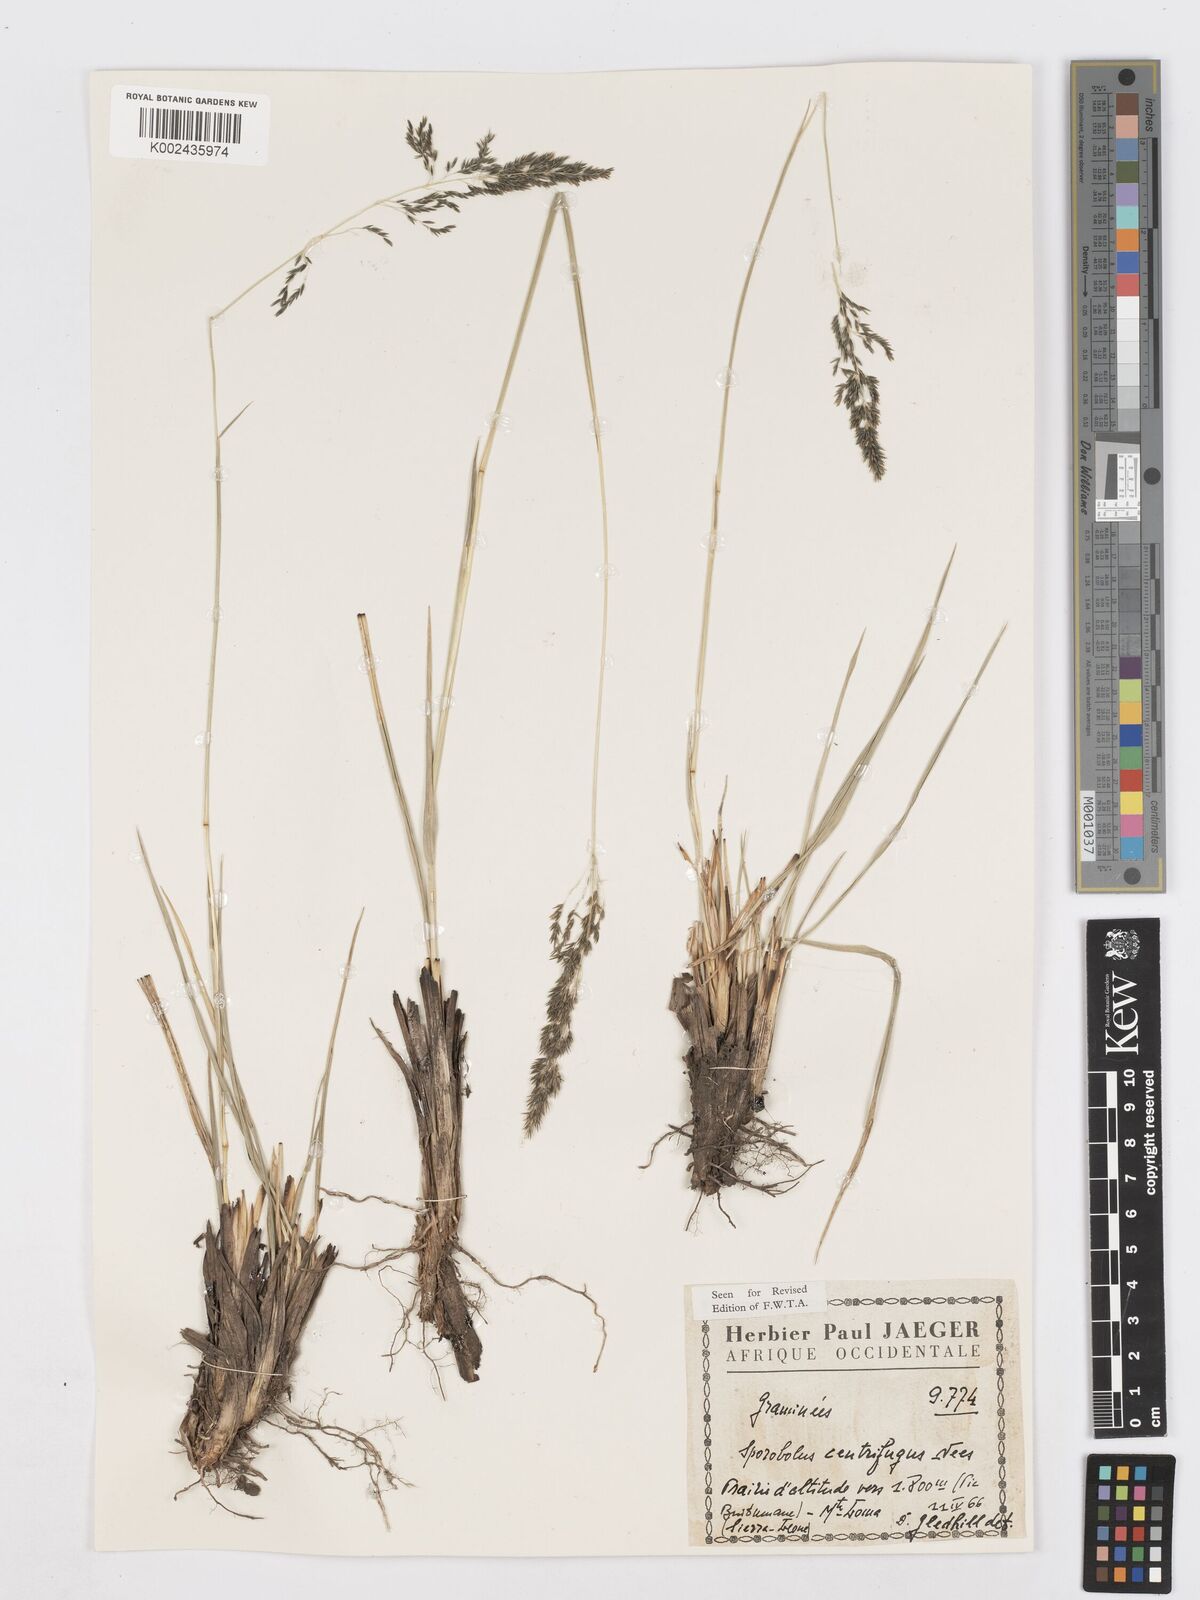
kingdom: Plantae
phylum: Tracheophyta
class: Liliopsida
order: Poales
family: Poaceae
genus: Sporobolus
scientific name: Sporobolus subulatus
